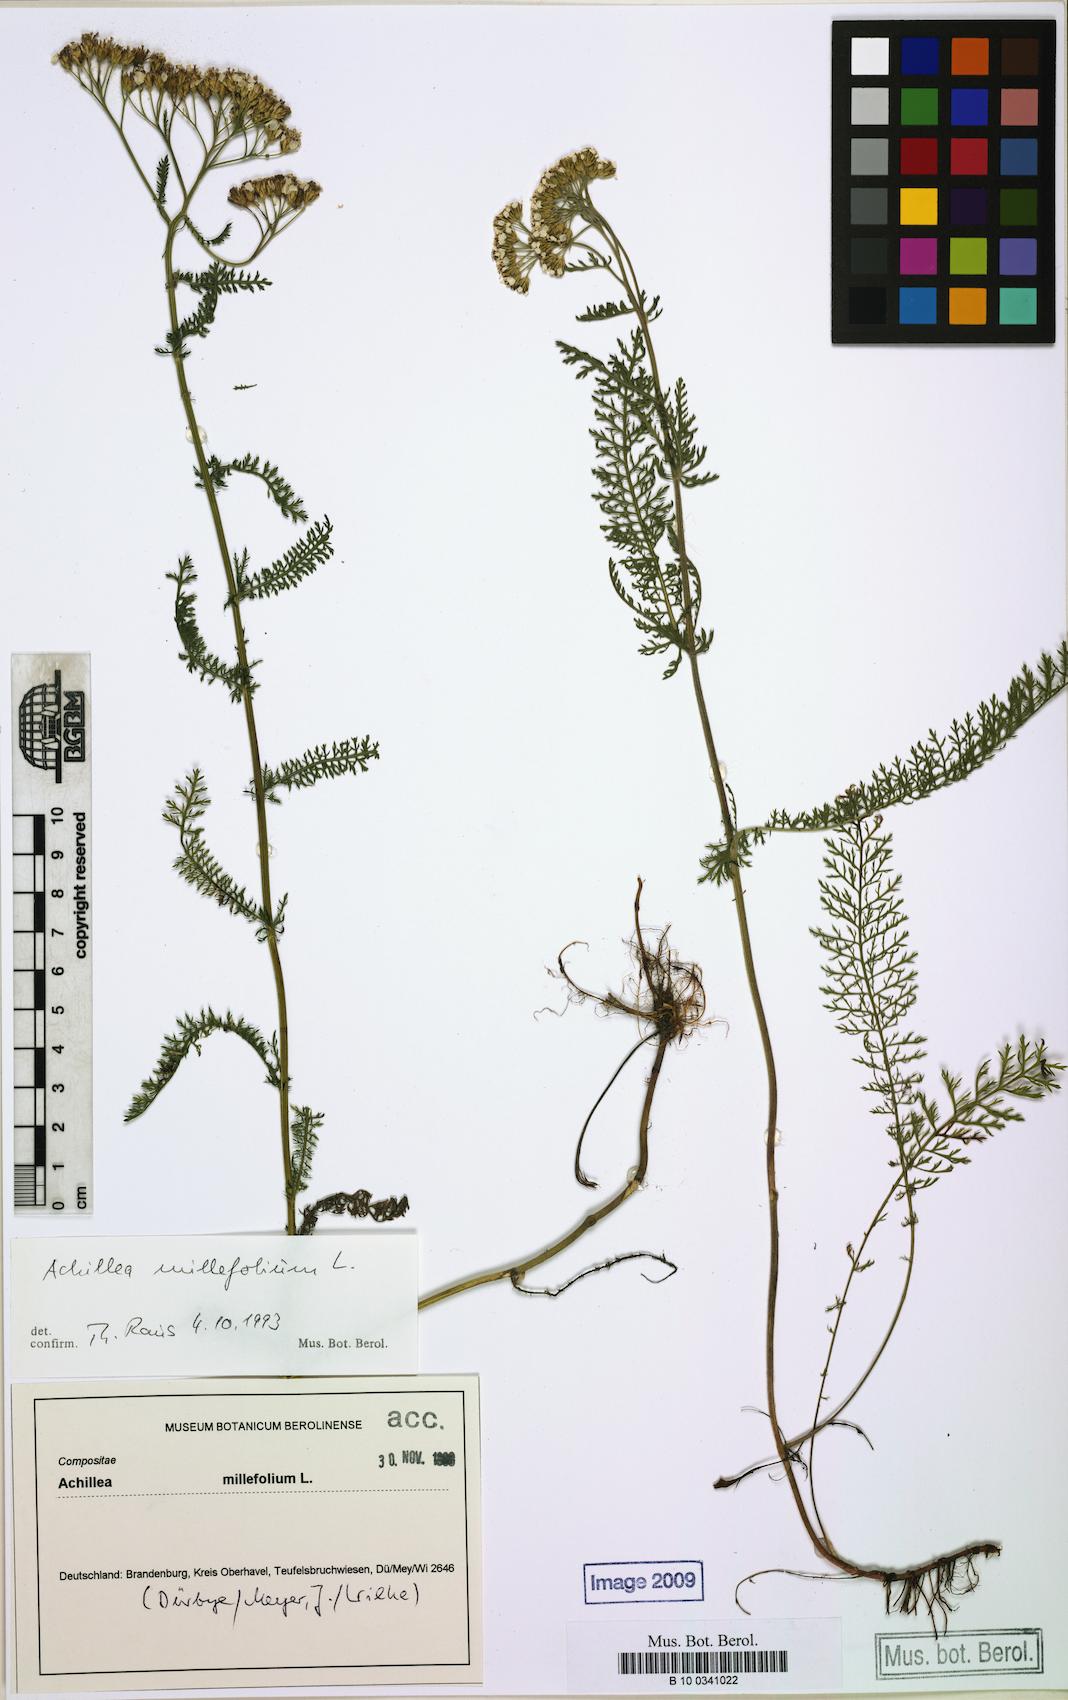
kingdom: Plantae
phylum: Tracheophyta
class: Magnoliopsida
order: Asterales
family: Asteraceae
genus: Achillea
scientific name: Achillea millefolium
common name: Yarrow
